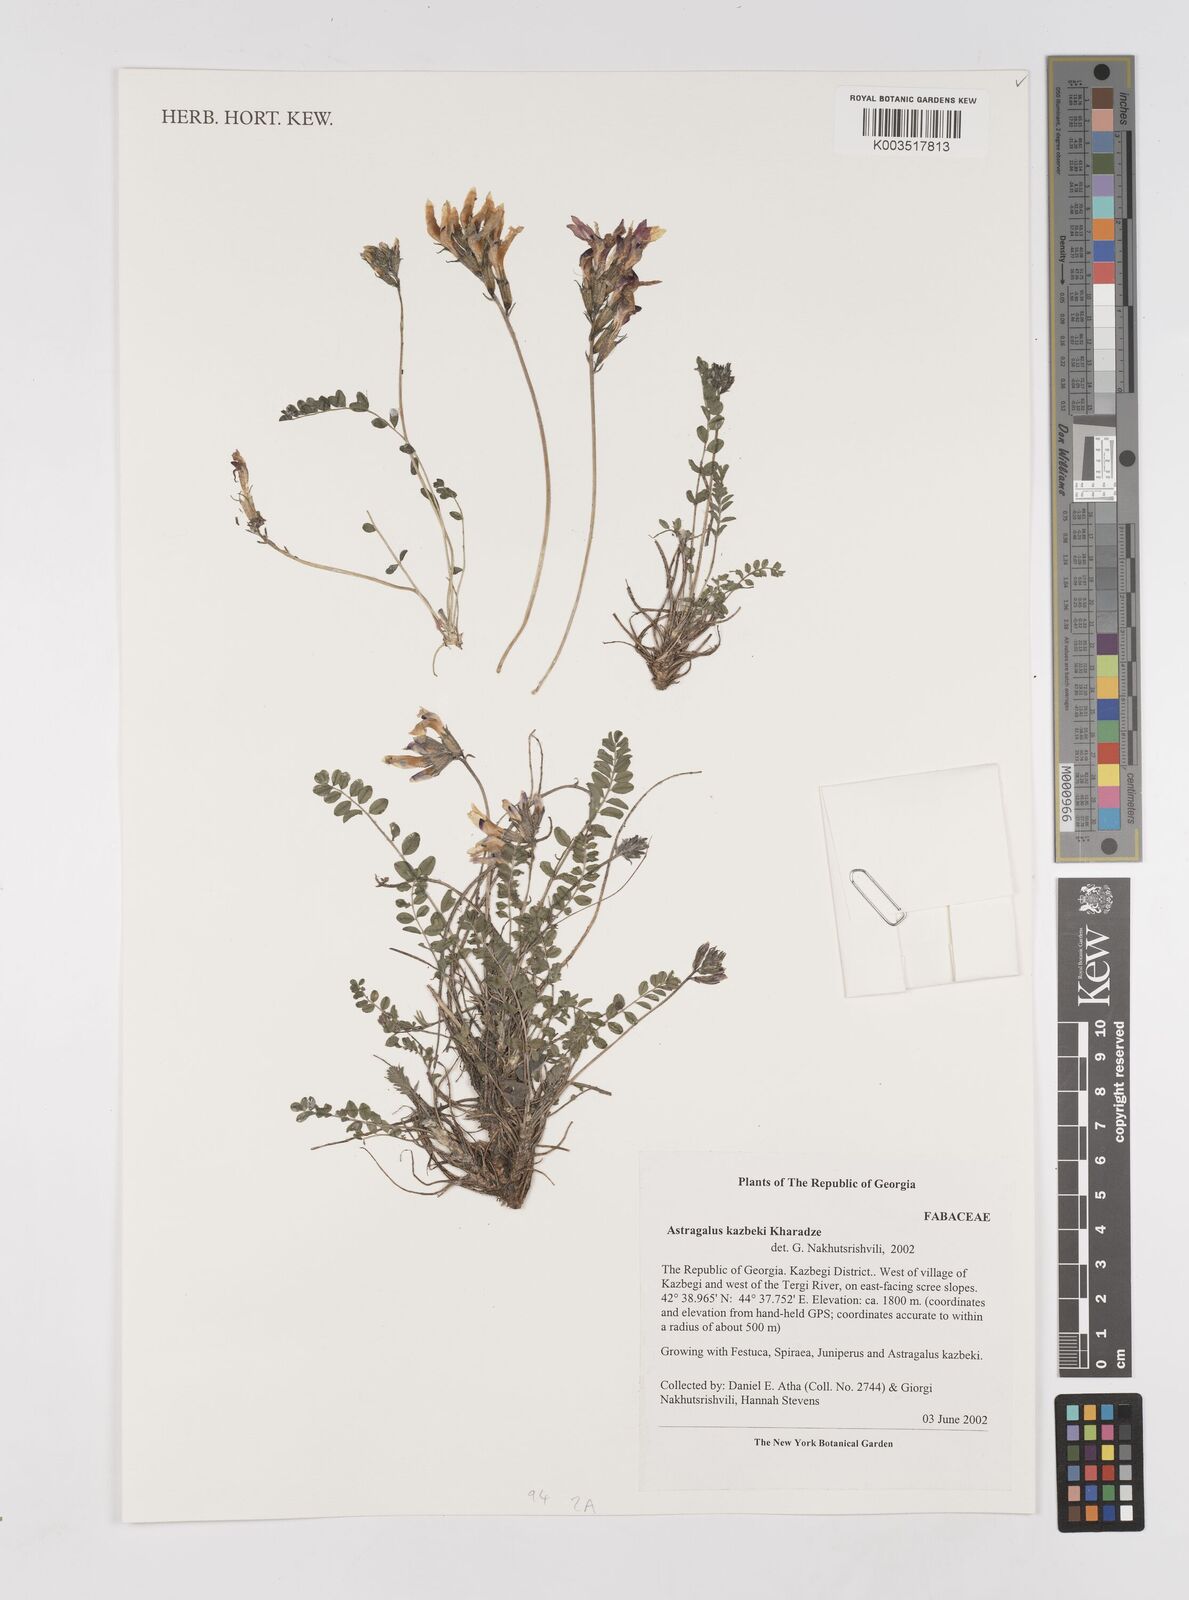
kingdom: Plantae
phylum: Tracheophyta
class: Magnoliopsida
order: Fabales
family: Fabaceae
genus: Astragalus
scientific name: Astragalus kazbeki
